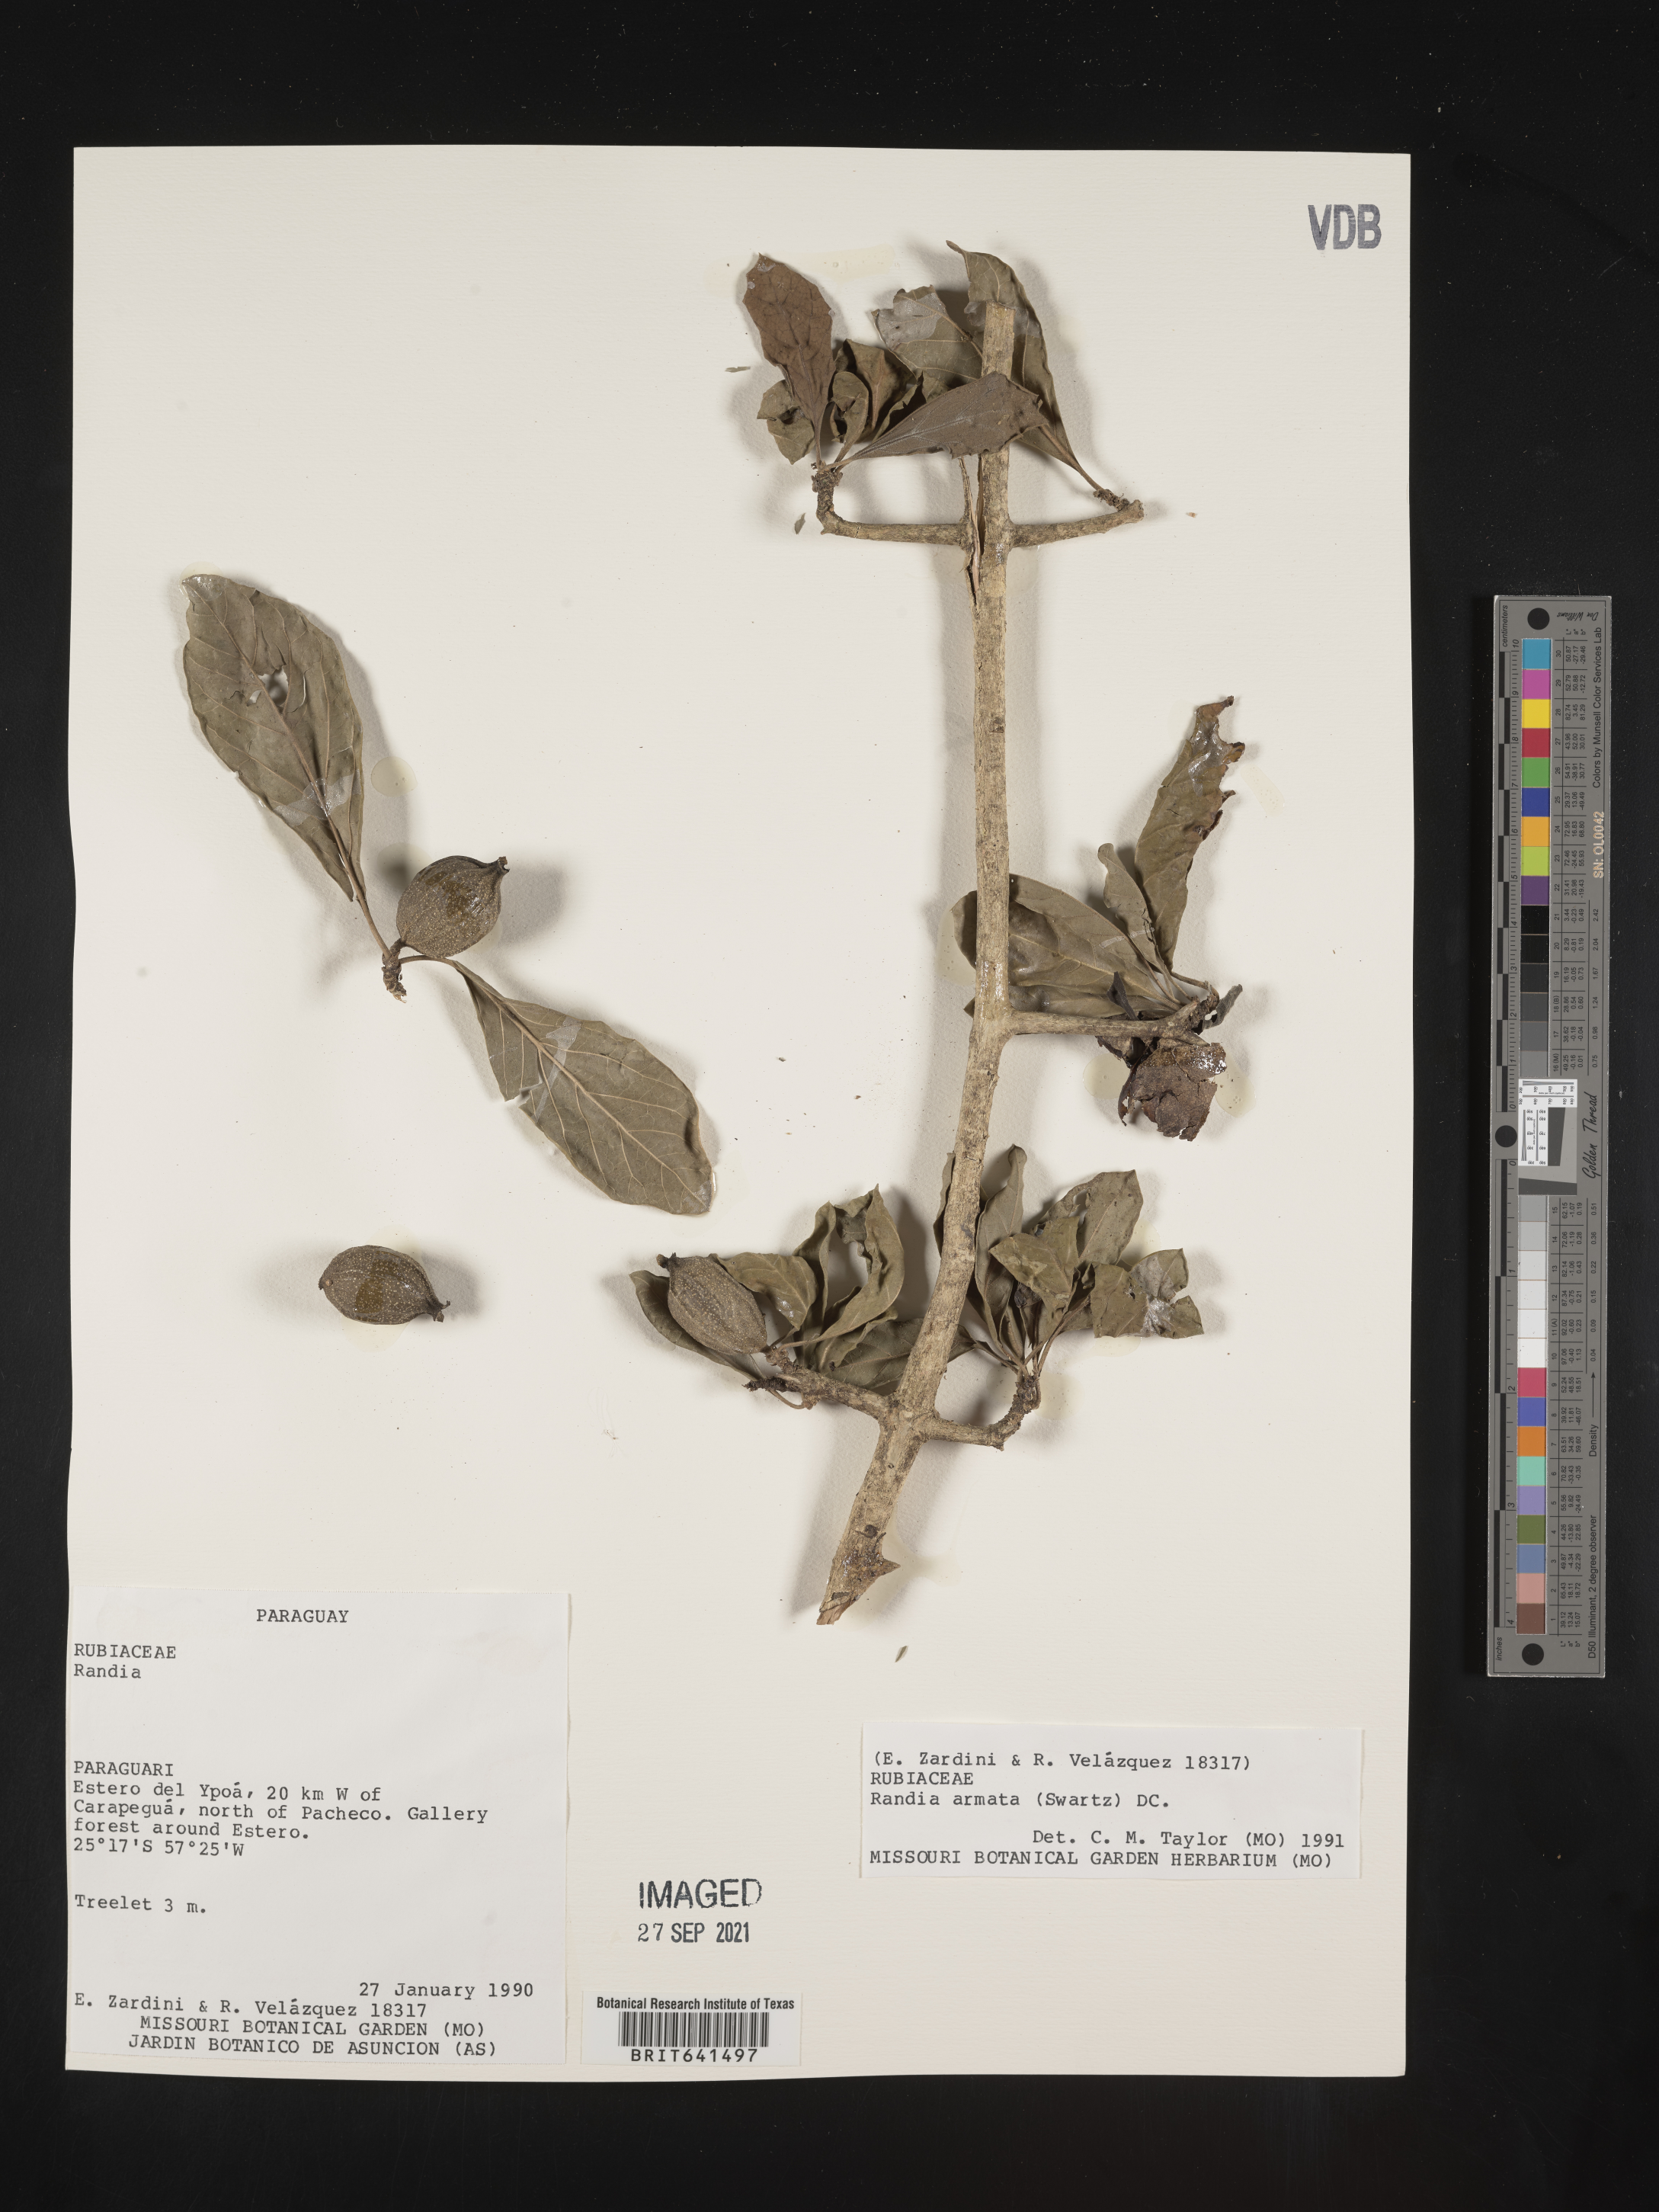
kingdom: Plantae
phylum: Tracheophyta
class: Magnoliopsida
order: Gentianales
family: Rubiaceae
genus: Randia
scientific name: Randia
